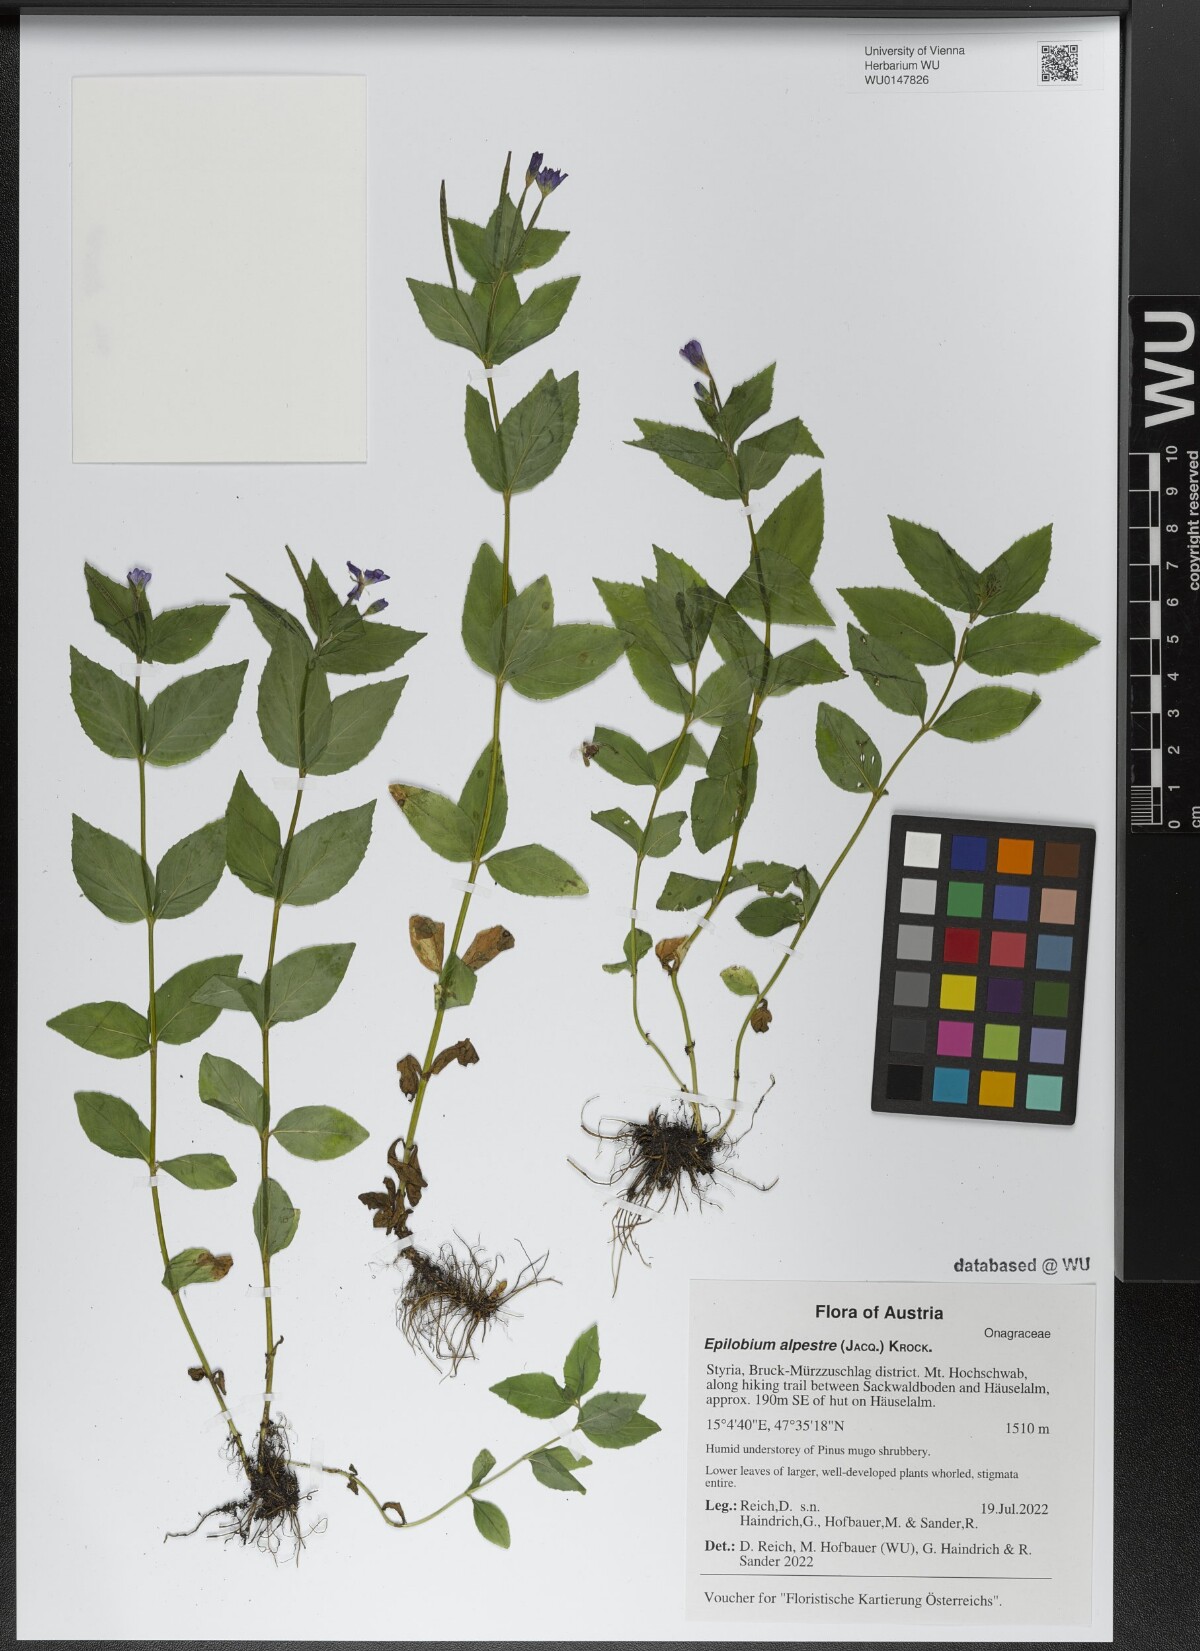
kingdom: Plantae
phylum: Tracheophyta
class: Magnoliopsida
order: Myrtales
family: Onagraceae
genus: Epilobium
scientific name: Epilobium alpestre
